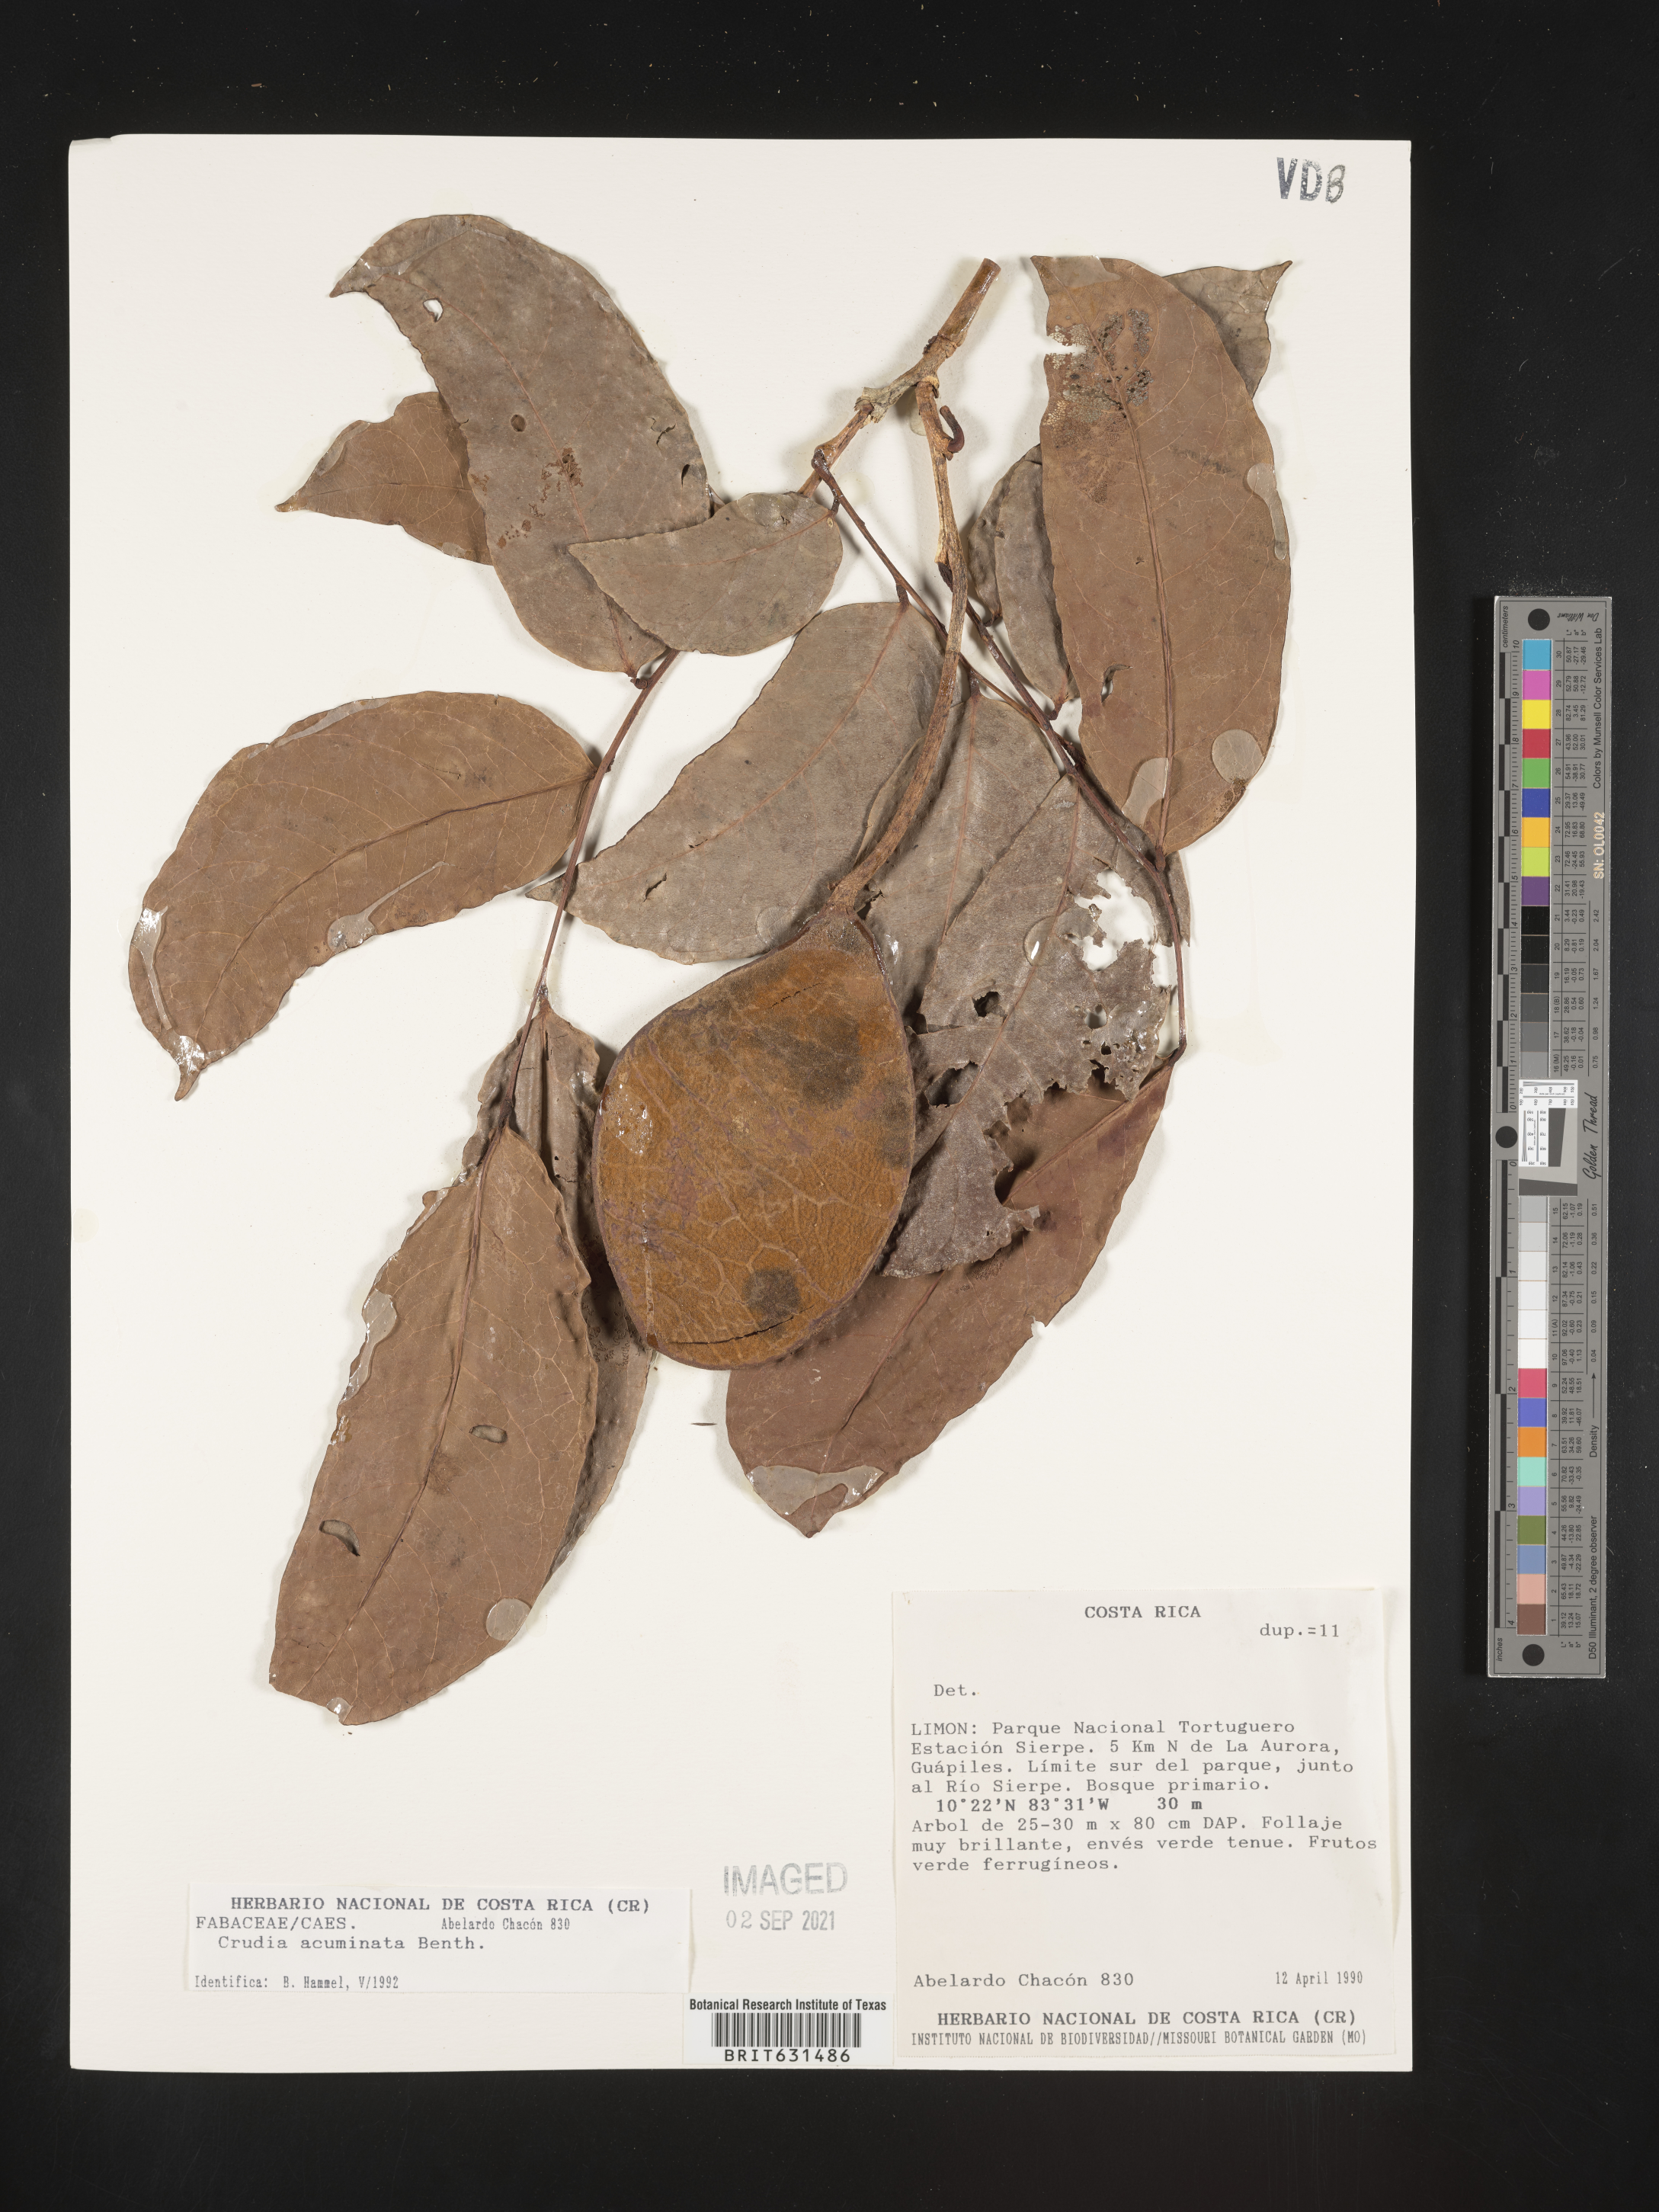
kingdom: Plantae
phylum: Tracheophyta
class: Magnoliopsida
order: Fabales
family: Fabaceae
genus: Crudia
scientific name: Crudia acuminata
